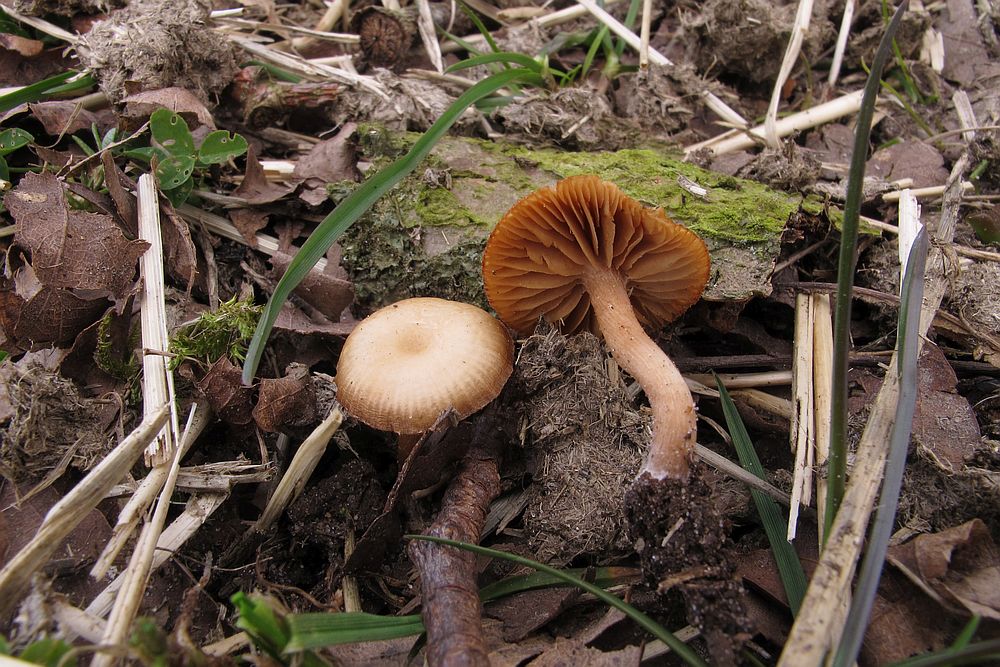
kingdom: Fungi
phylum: Basidiomycota
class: Agaricomycetes
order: Agaricales
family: Tubariaceae
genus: Tubaria
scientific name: Tubaria furfuracea
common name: kliddet fnughat
